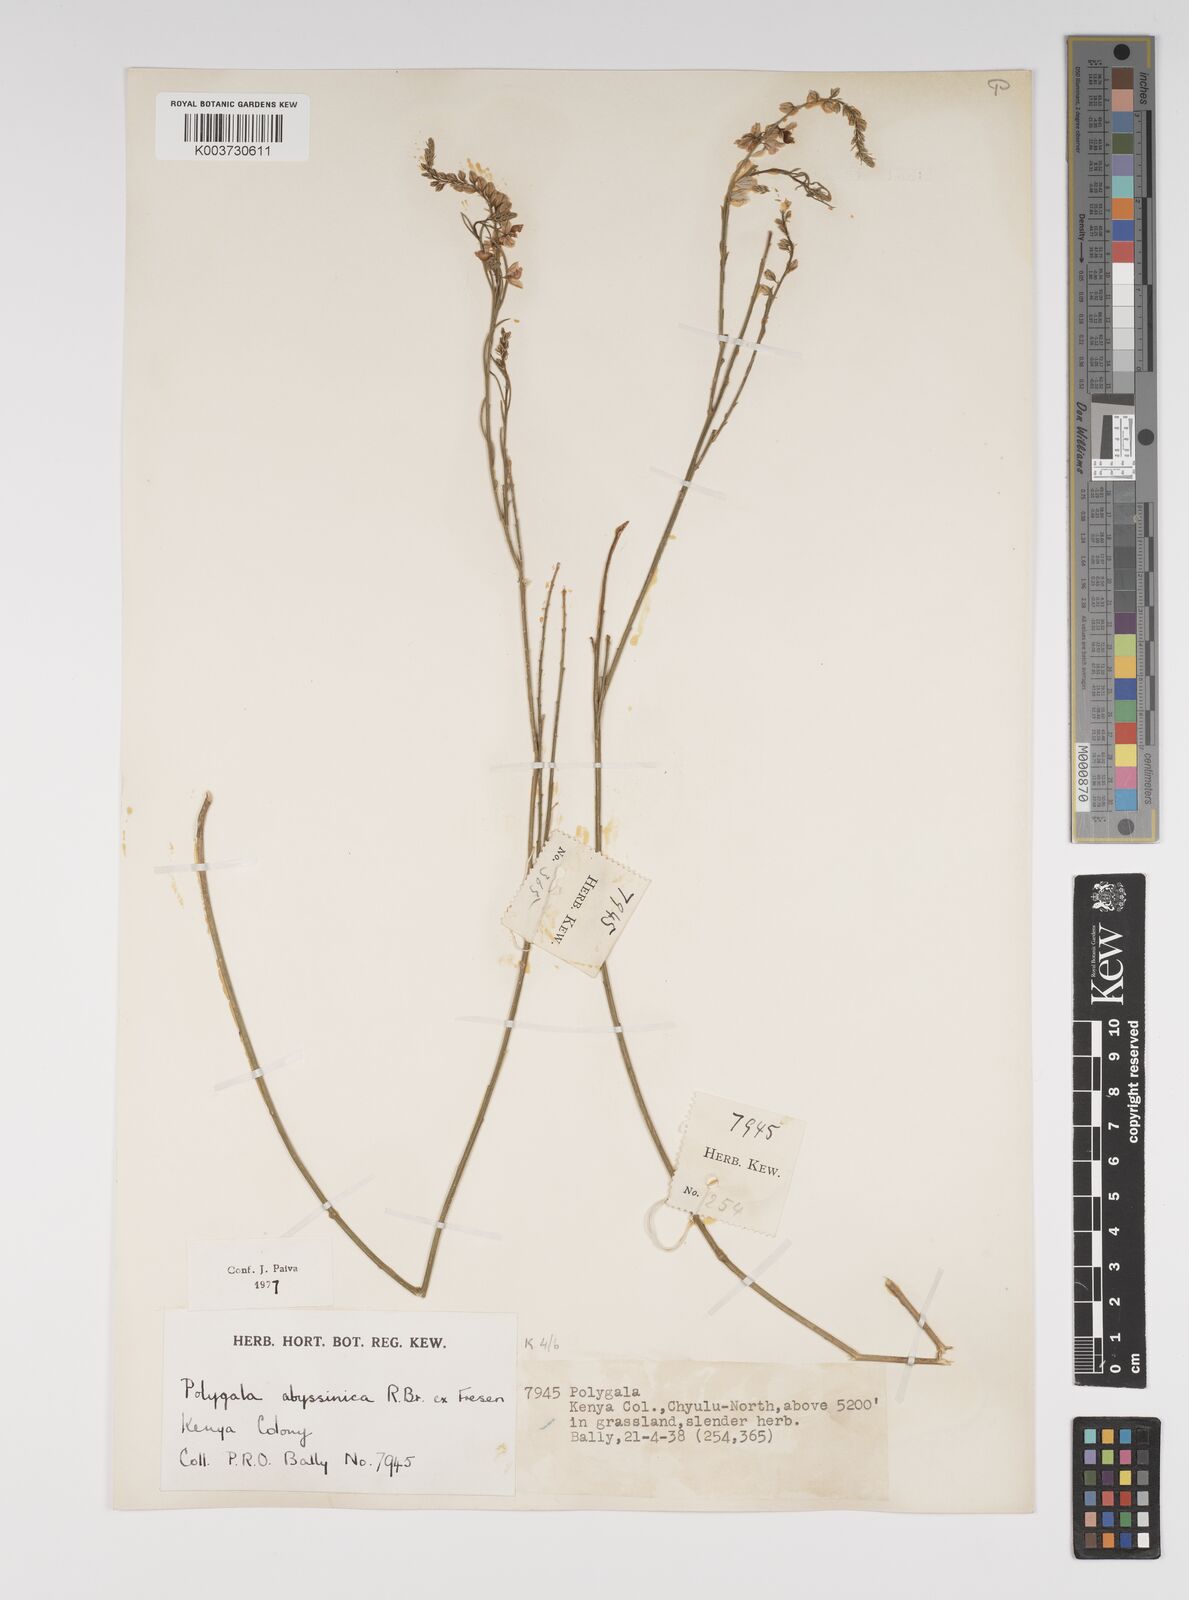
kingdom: Plantae
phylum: Tracheophyta
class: Magnoliopsida
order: Fabales
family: Polygalaceae
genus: Polygala
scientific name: Polygala abyssinica
